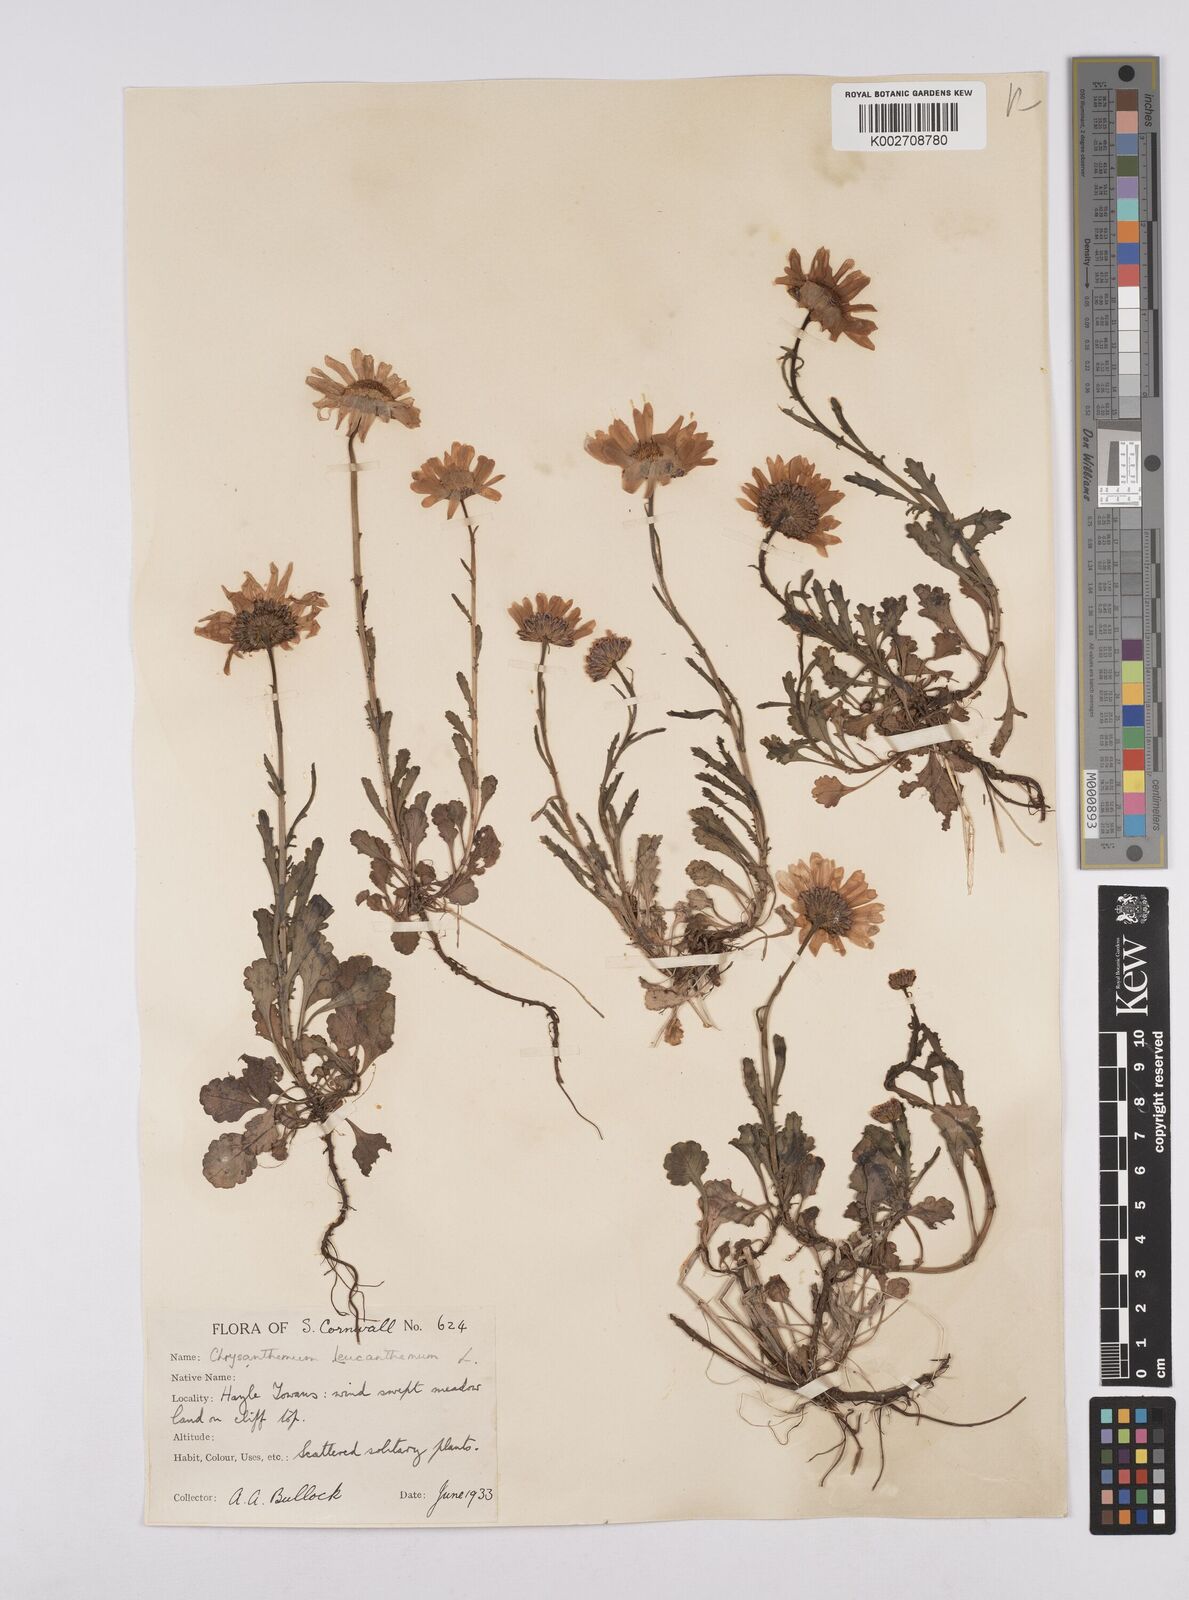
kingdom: Plantae
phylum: Tracheophyta
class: Magnoliopsida
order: Asterales
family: Asteraceae
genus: Leucanthemum
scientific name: Leucanthemum vulgare
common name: Oxeye daisy
